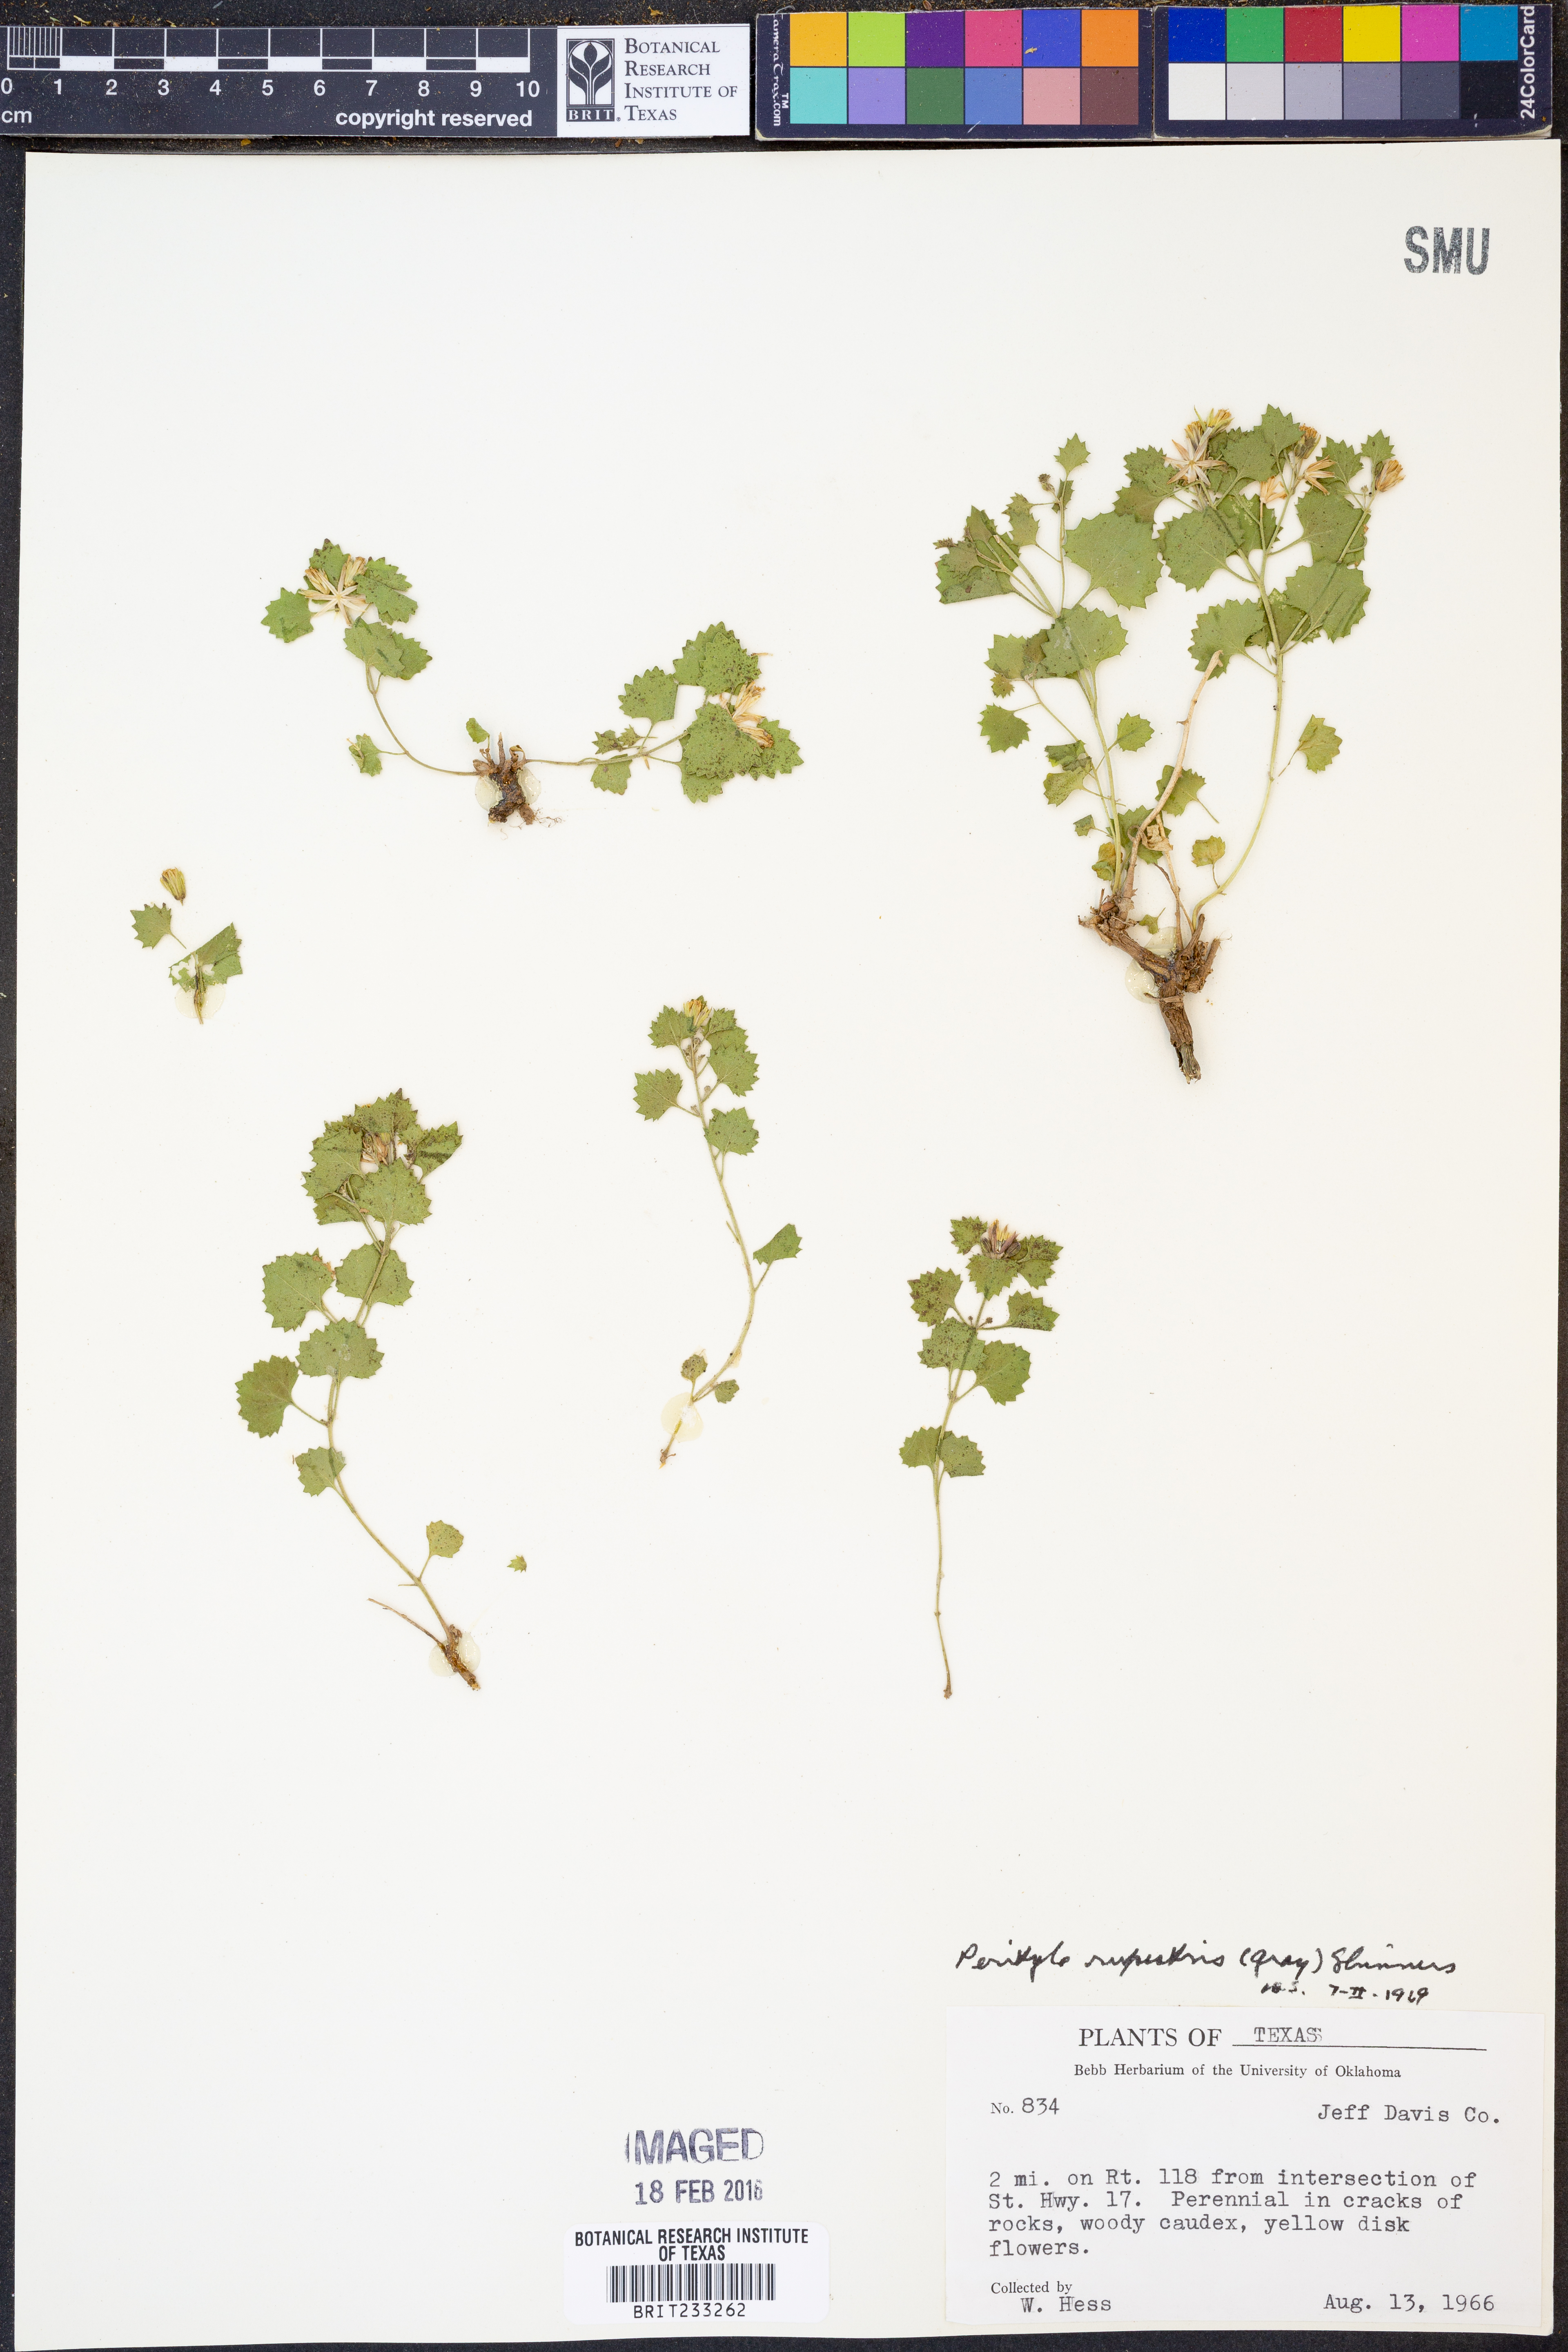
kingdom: Plantae
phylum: Tracheophyta
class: Magnoliopsida
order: Asterales
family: Asteraceae
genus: Laphamia
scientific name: Laphamia rupestris
